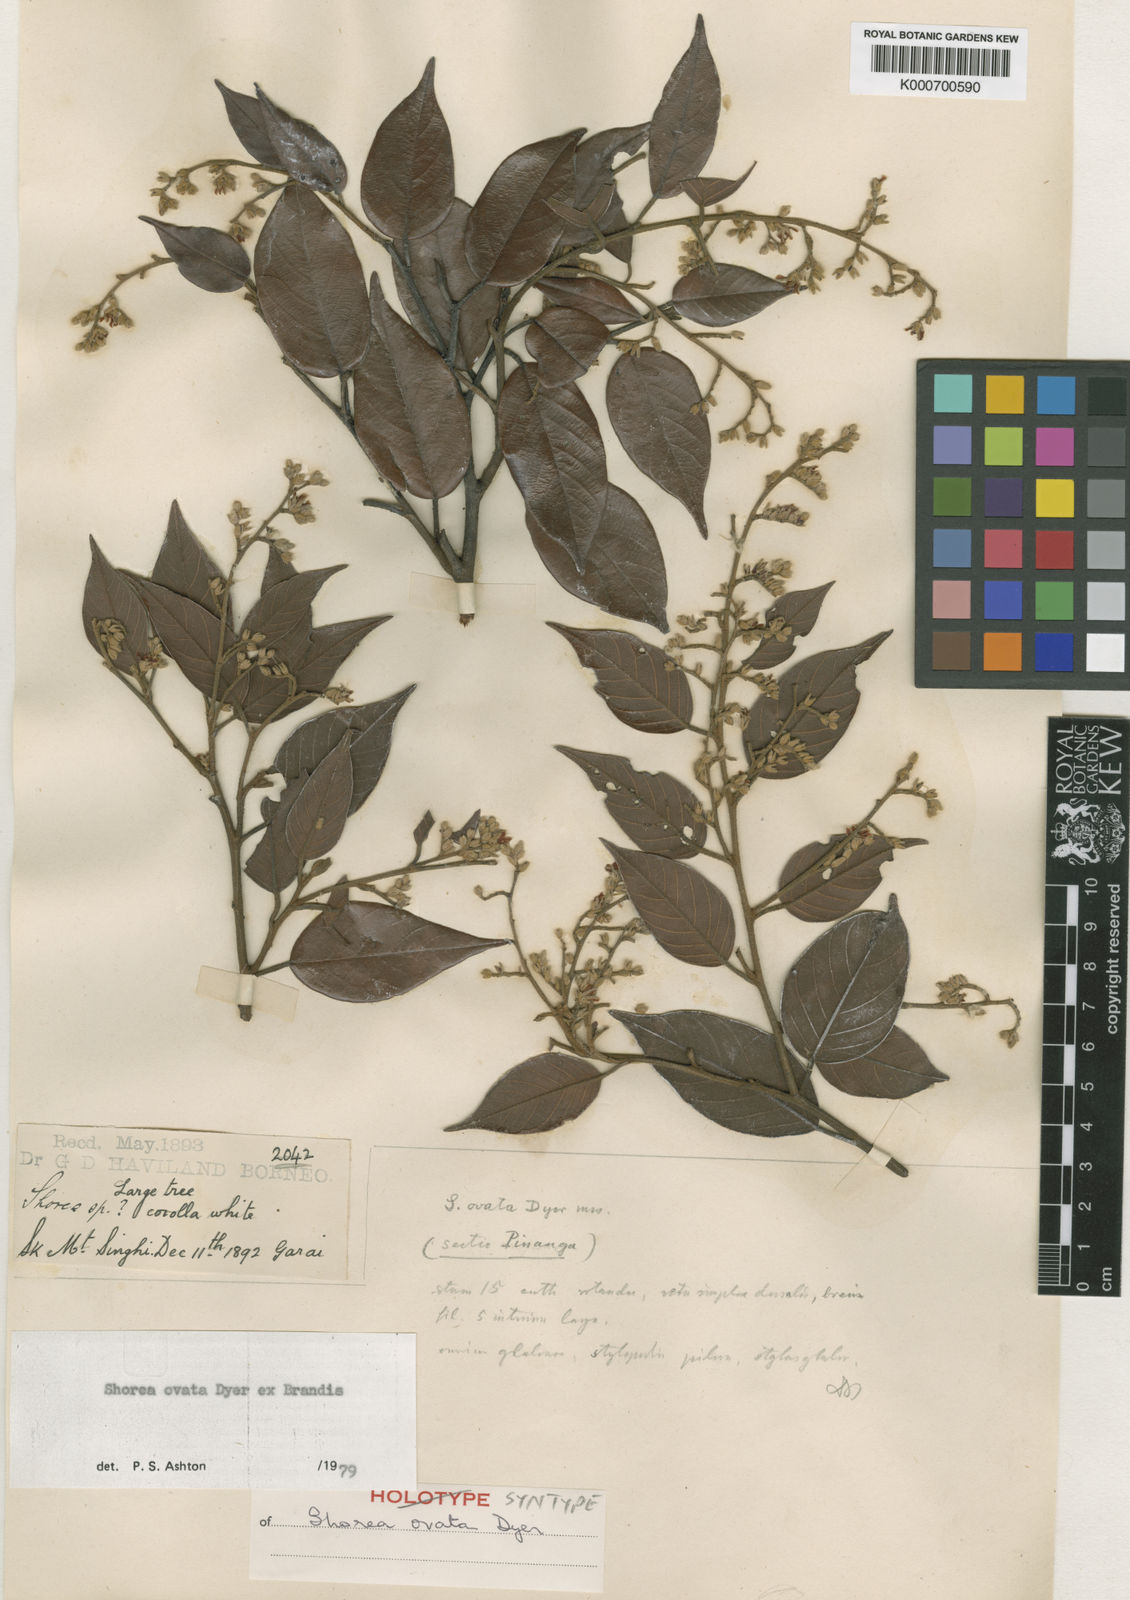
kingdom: Plantae
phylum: Tracheophyta
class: Magnoliopsida
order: Malvales
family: Dipterocarpaceae
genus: Shorea
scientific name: Shorea ovata
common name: Dark red meranti
